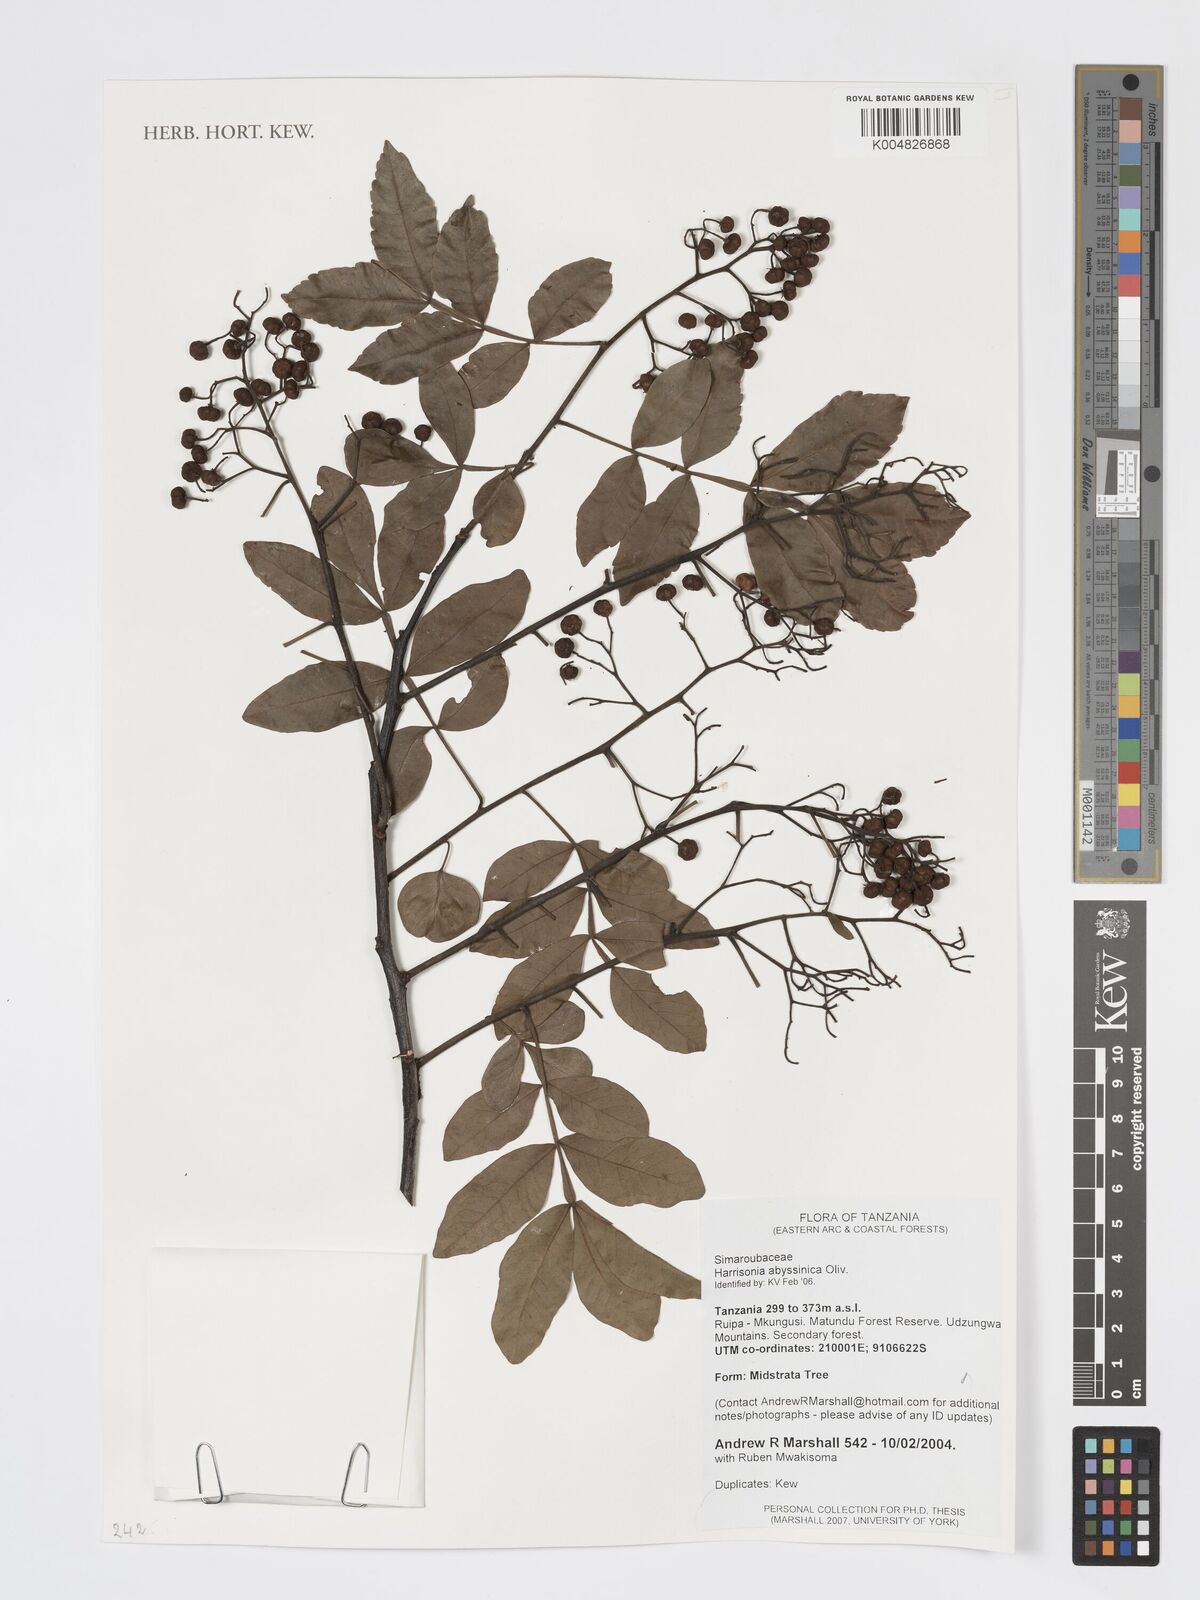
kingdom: Plantae
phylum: Tracheophyta
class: Magnoliopsida
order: Sapindales
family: Rutaceae
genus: Harrisonia
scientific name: Harrisonia abyssinica
